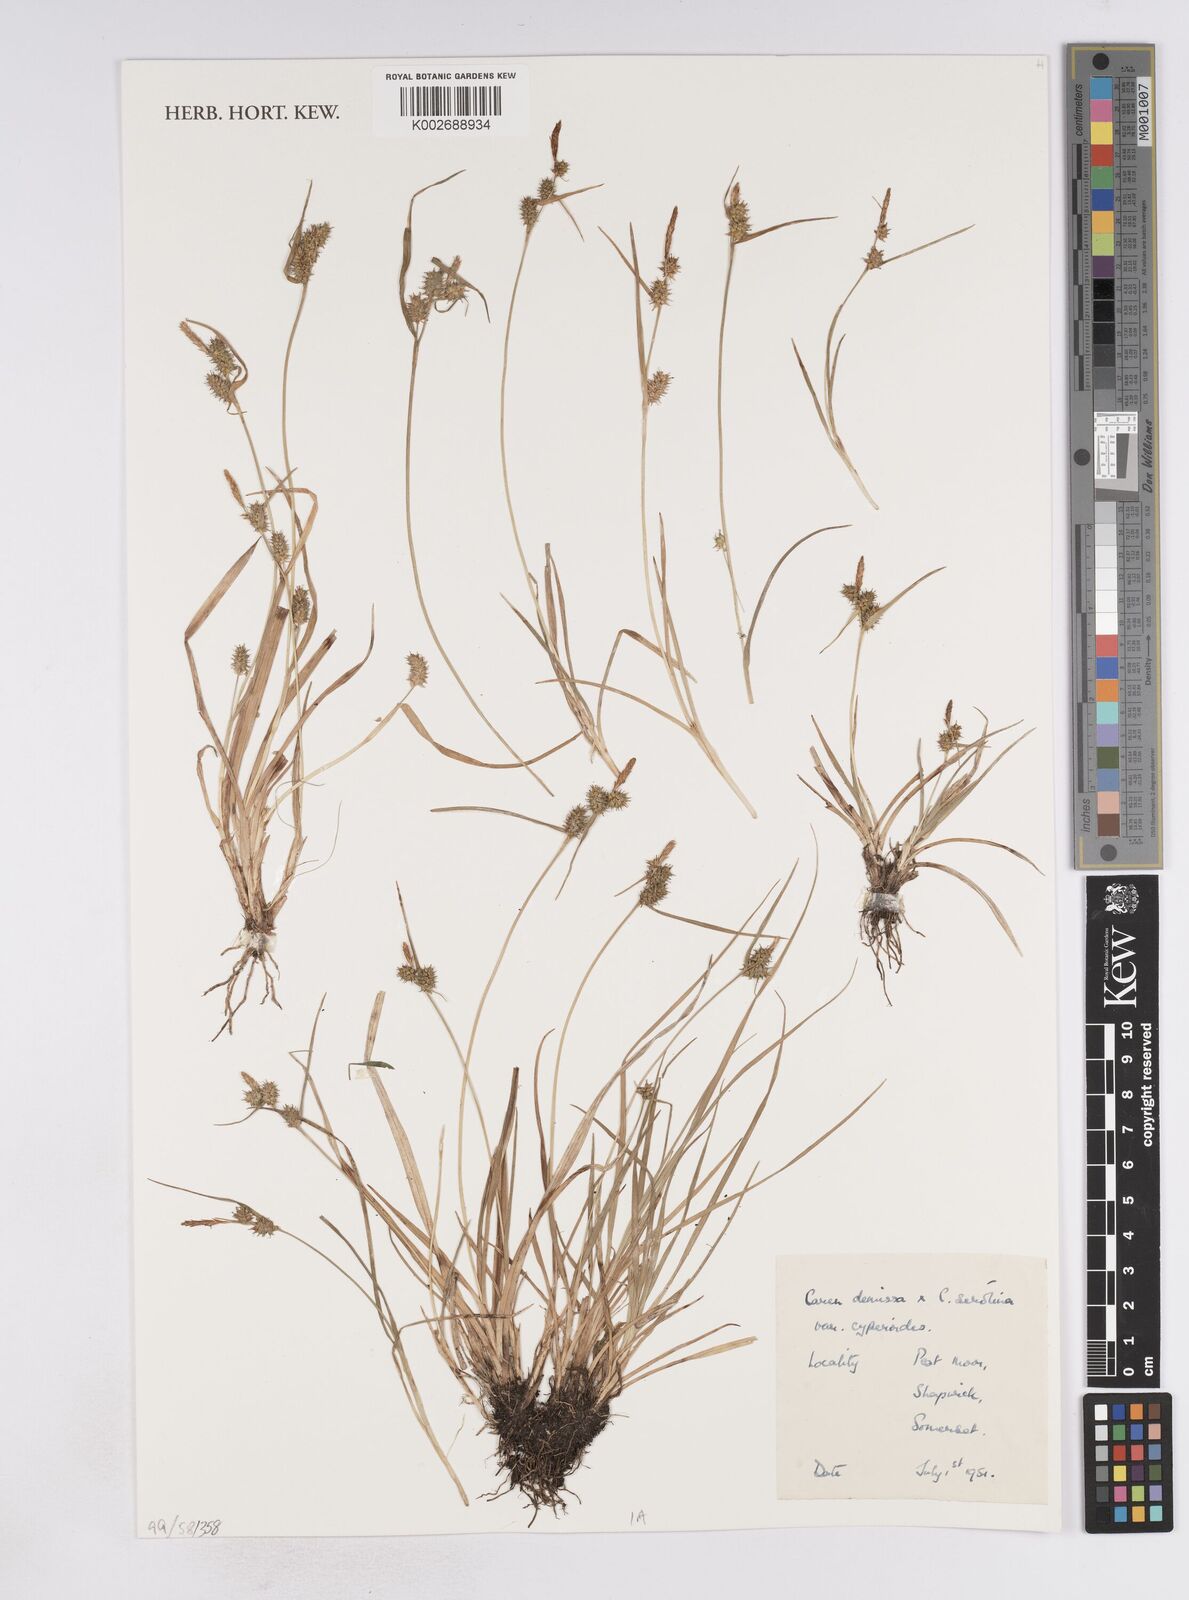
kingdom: Plantae
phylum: Tracheophyta
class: Liliopsida
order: Poales
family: Cyperaceae
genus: Carex
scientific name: Carex demissa
